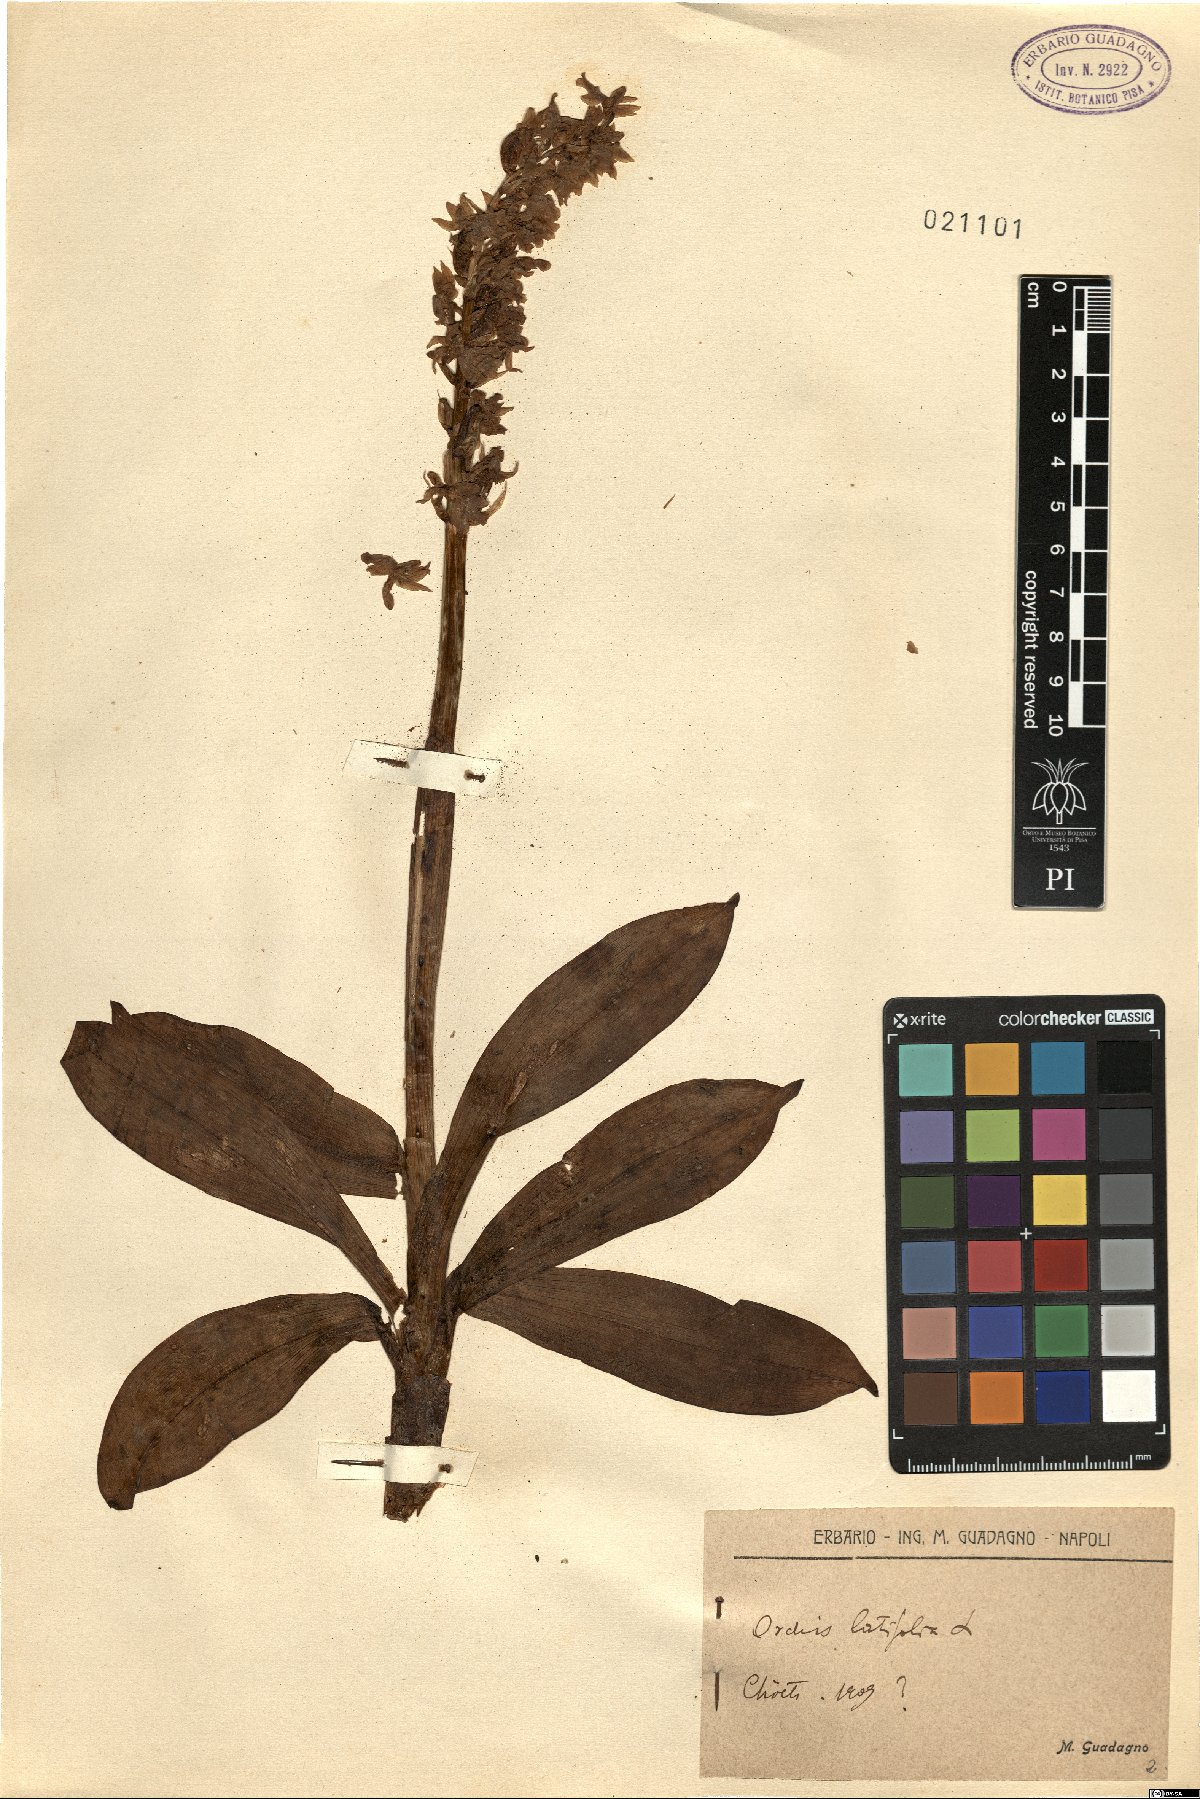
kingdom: Plantae
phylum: Tracheophyta
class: Liliopsida
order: Asparagales
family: Orchidaceae
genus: Dactylorhiza
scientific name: Dactylorhiza incarnata
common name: Early marsh-orchid
